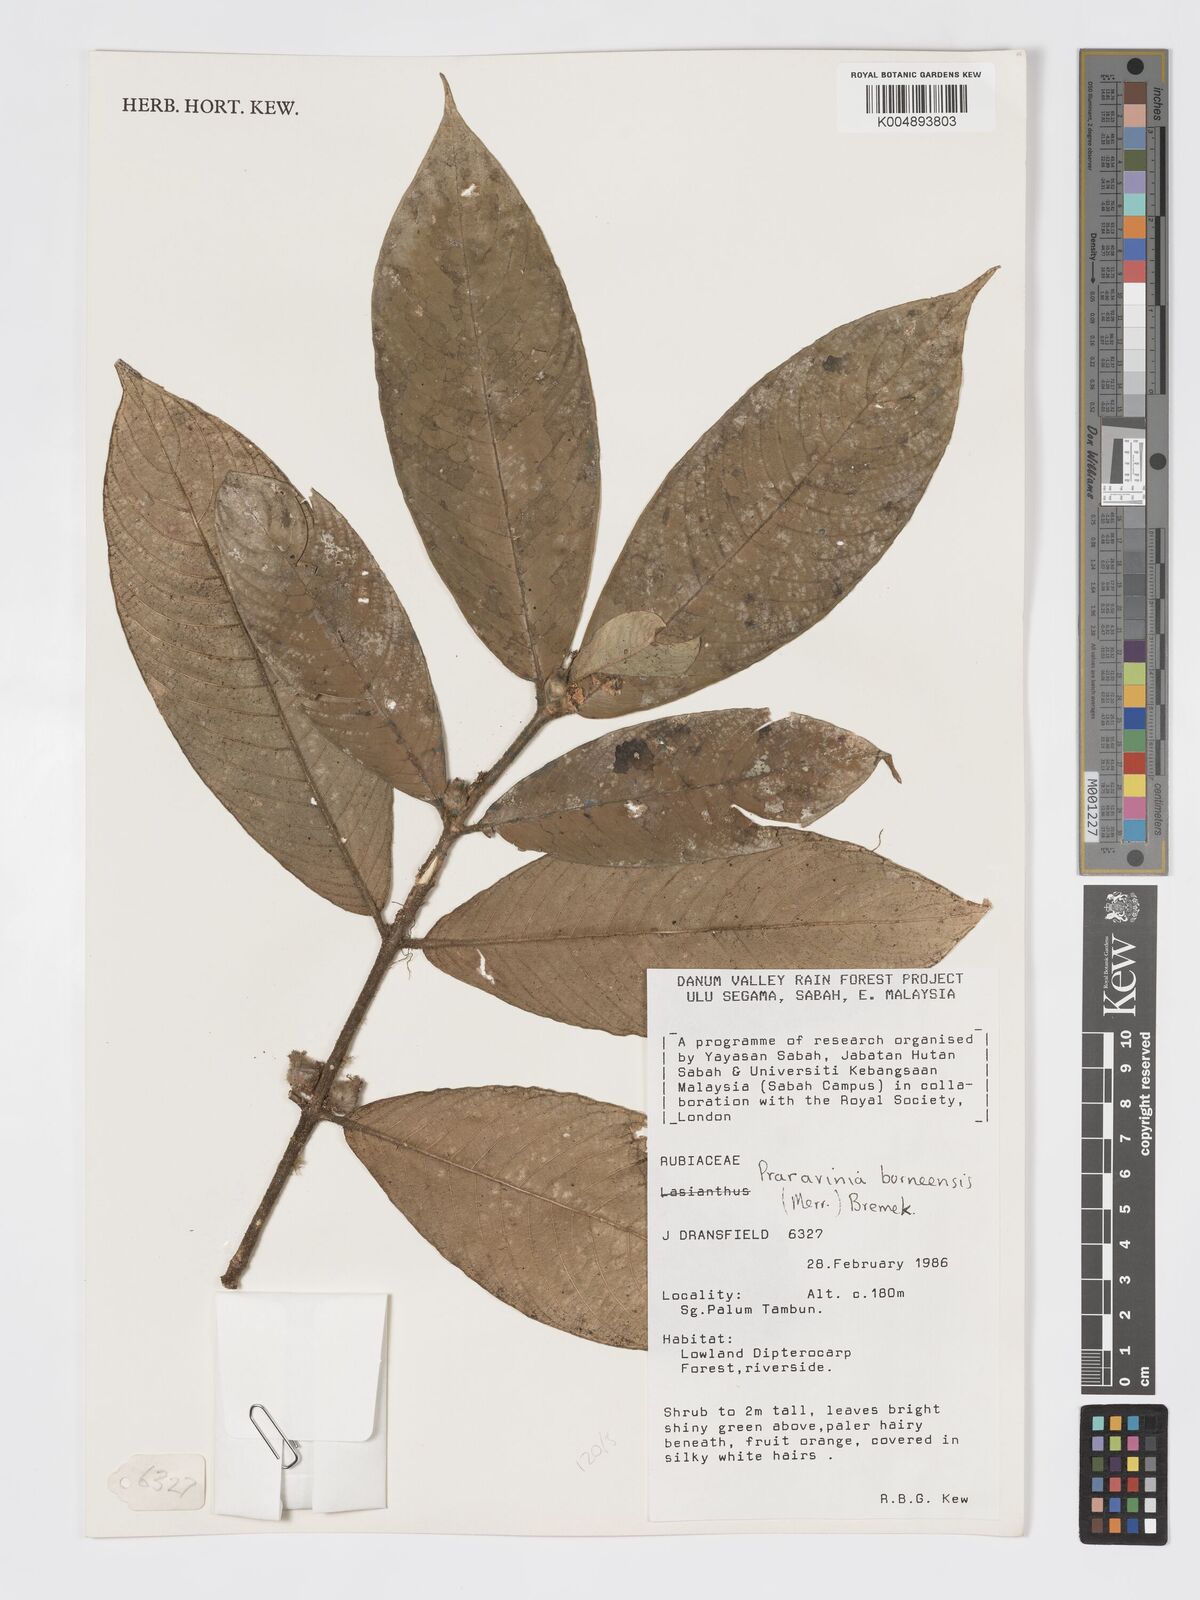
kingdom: Plantae
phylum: Tracheophyta
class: Magnoliopsida
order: Gentianales
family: Rubiaceae
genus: Praravinia
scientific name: Praravinia borneensis
